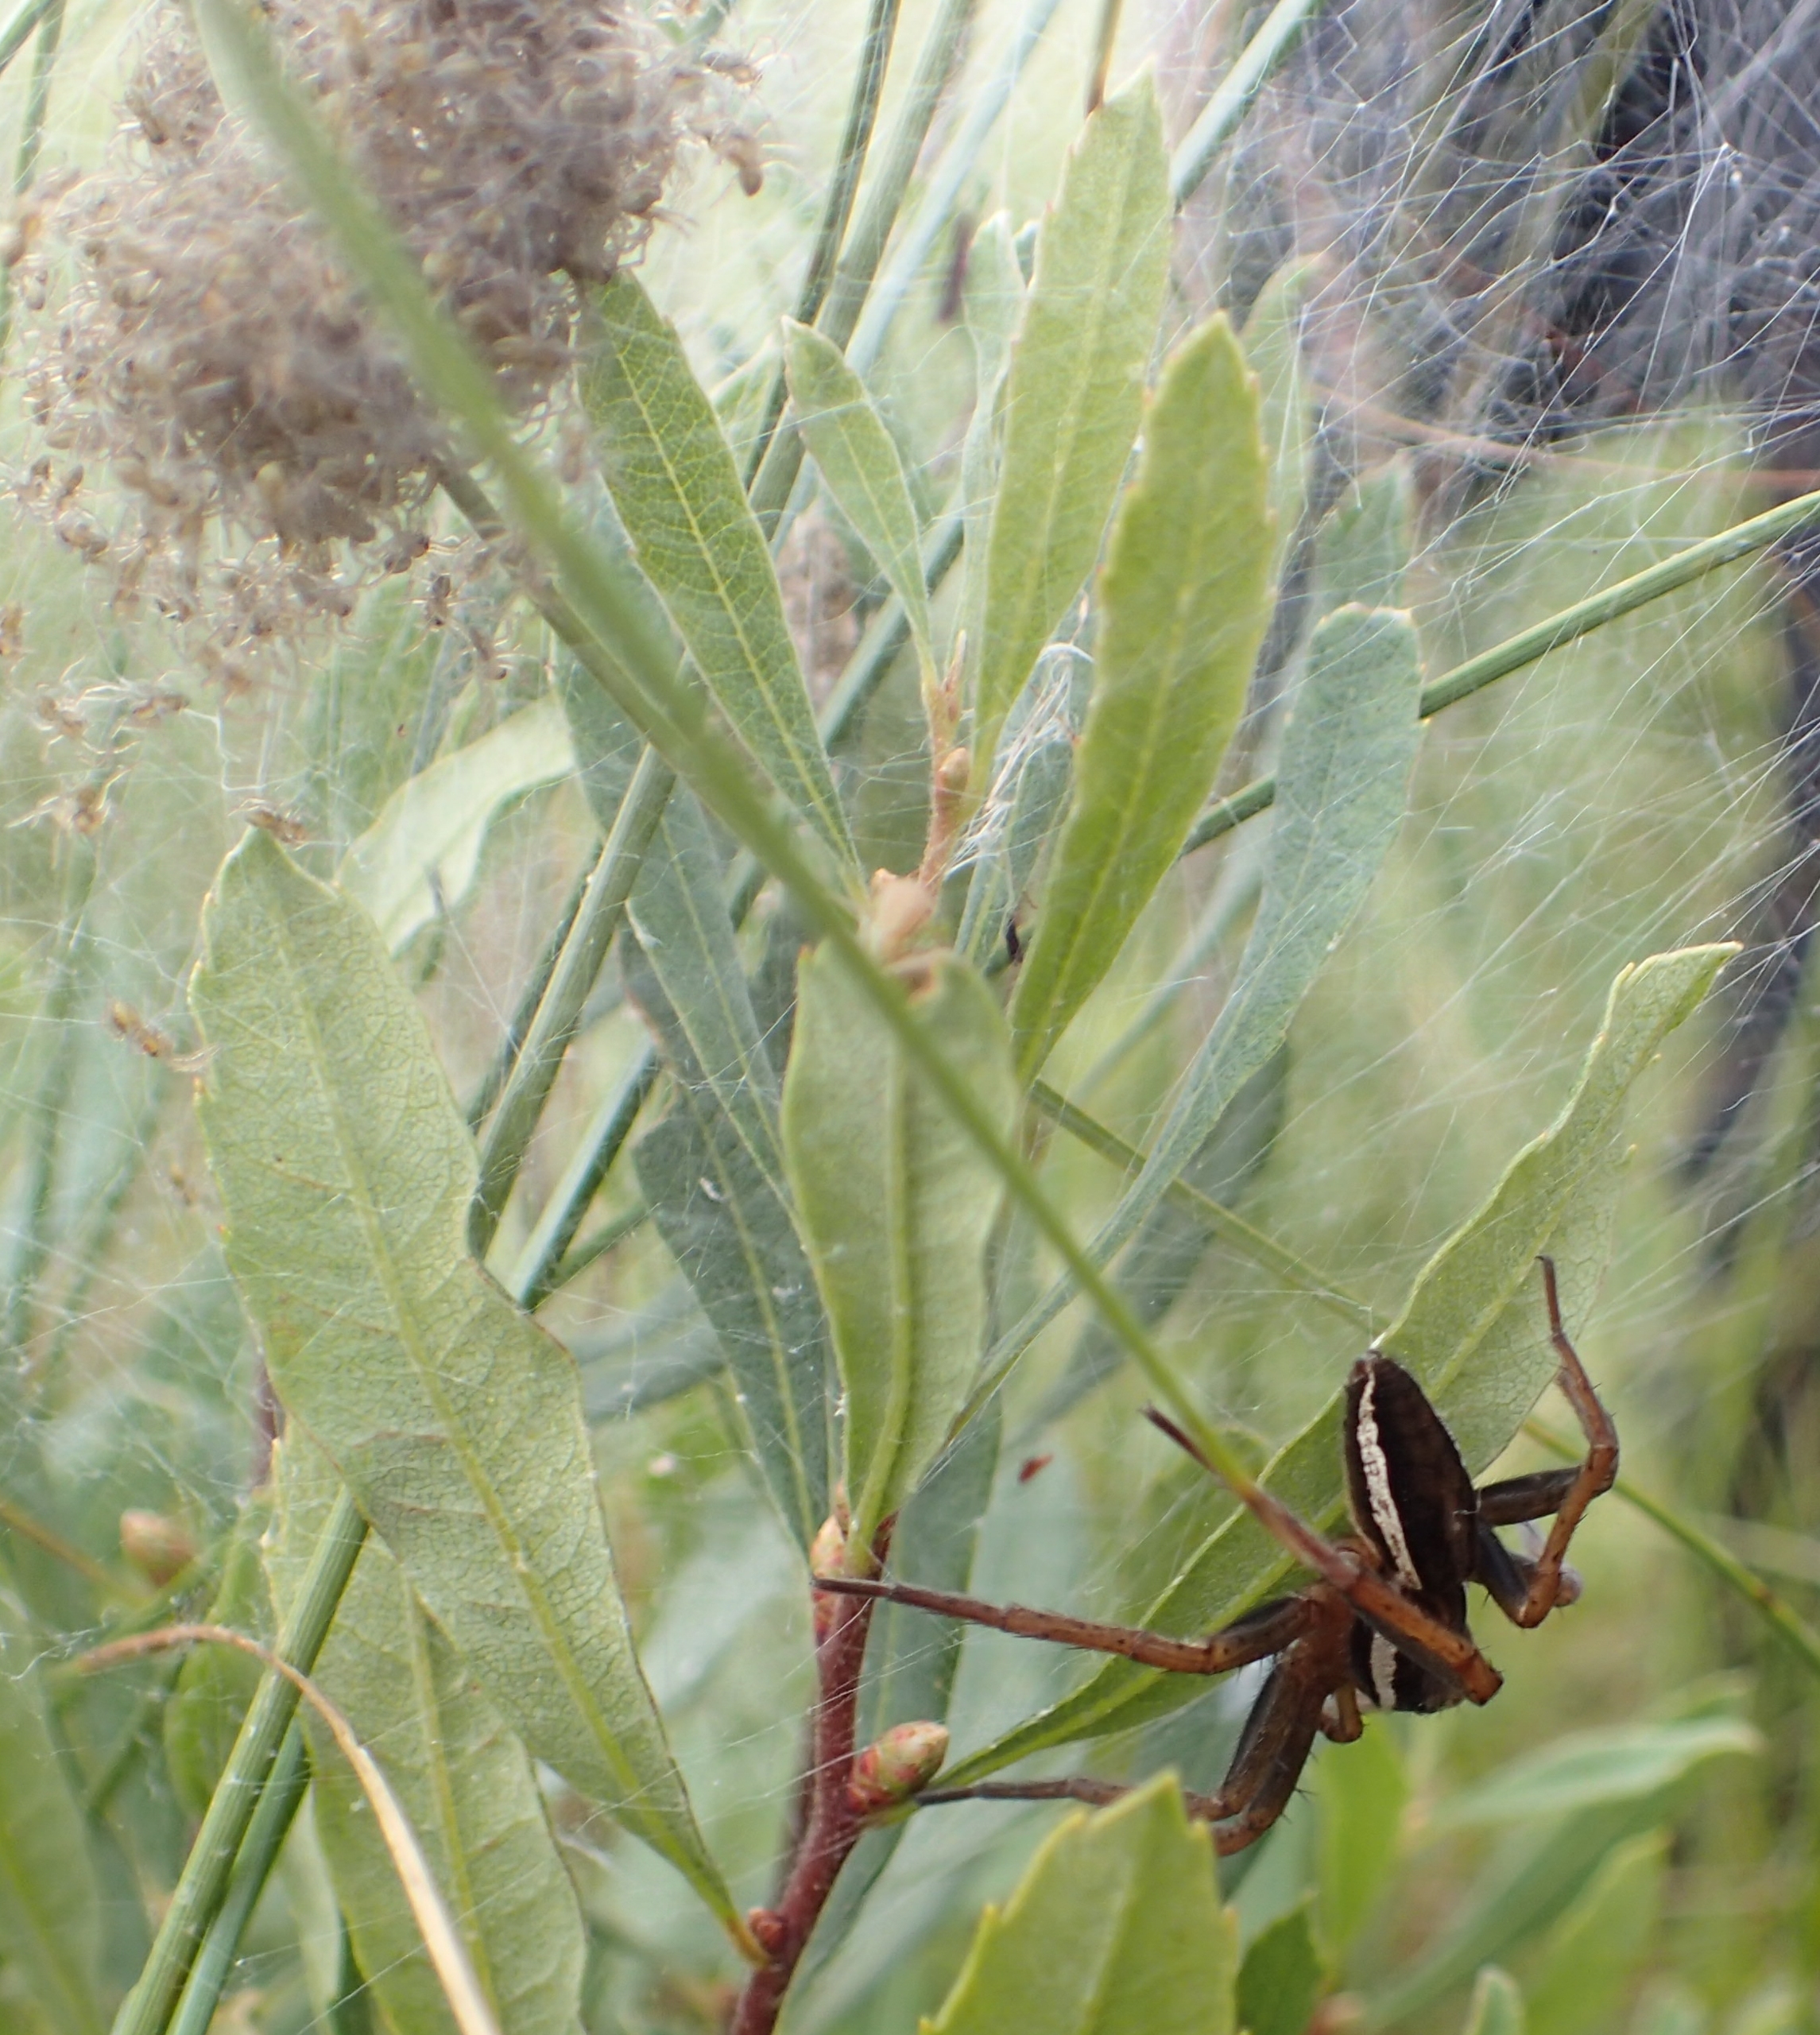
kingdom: Animalia
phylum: Arthropoda
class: Arachnida
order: Araneae
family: Pisauridae
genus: Dolomedes
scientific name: Dolomedes fimbriatus
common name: Stor rovedderkop
